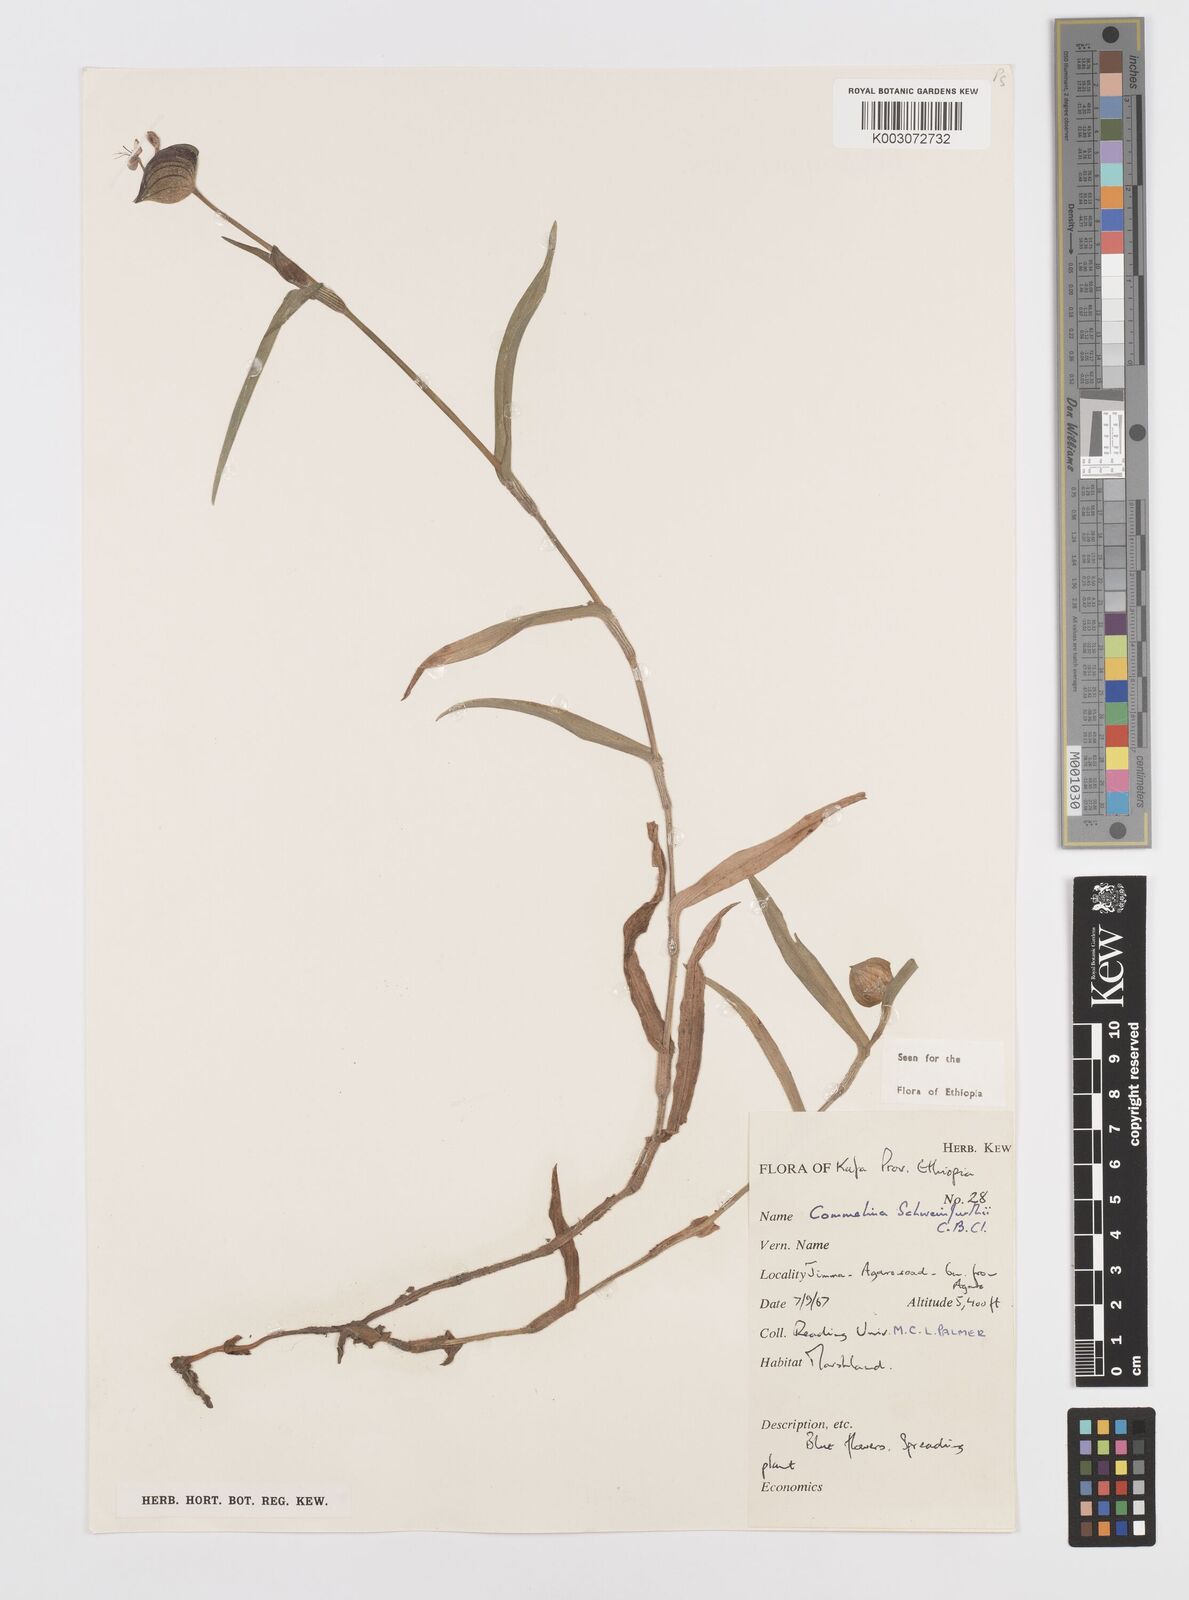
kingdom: Plantae
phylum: Tracheophyta
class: Liliopsida
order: Commelinales
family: Commelinaceae
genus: Commelina
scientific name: Commelina schweinfurthii
